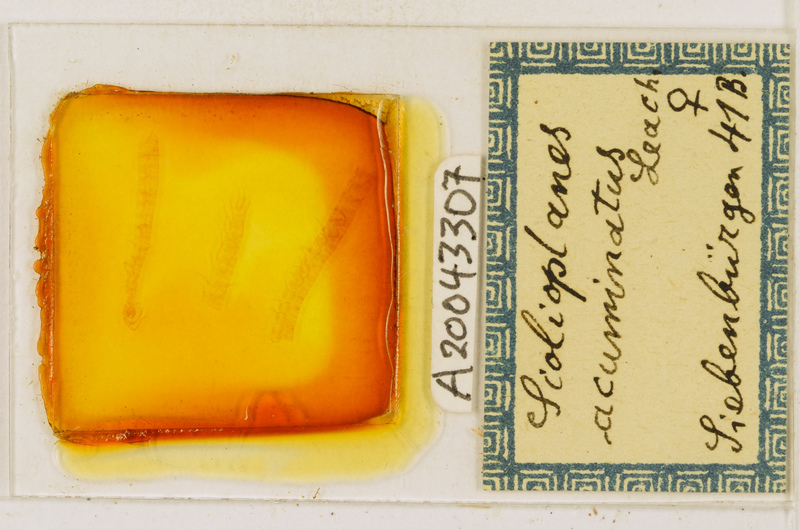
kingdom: Animalia
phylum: Arthropoda
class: Chilopoda
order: Geophilomorpha
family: Linotaeniidae
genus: Strigamia
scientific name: Strigamia acuminata
